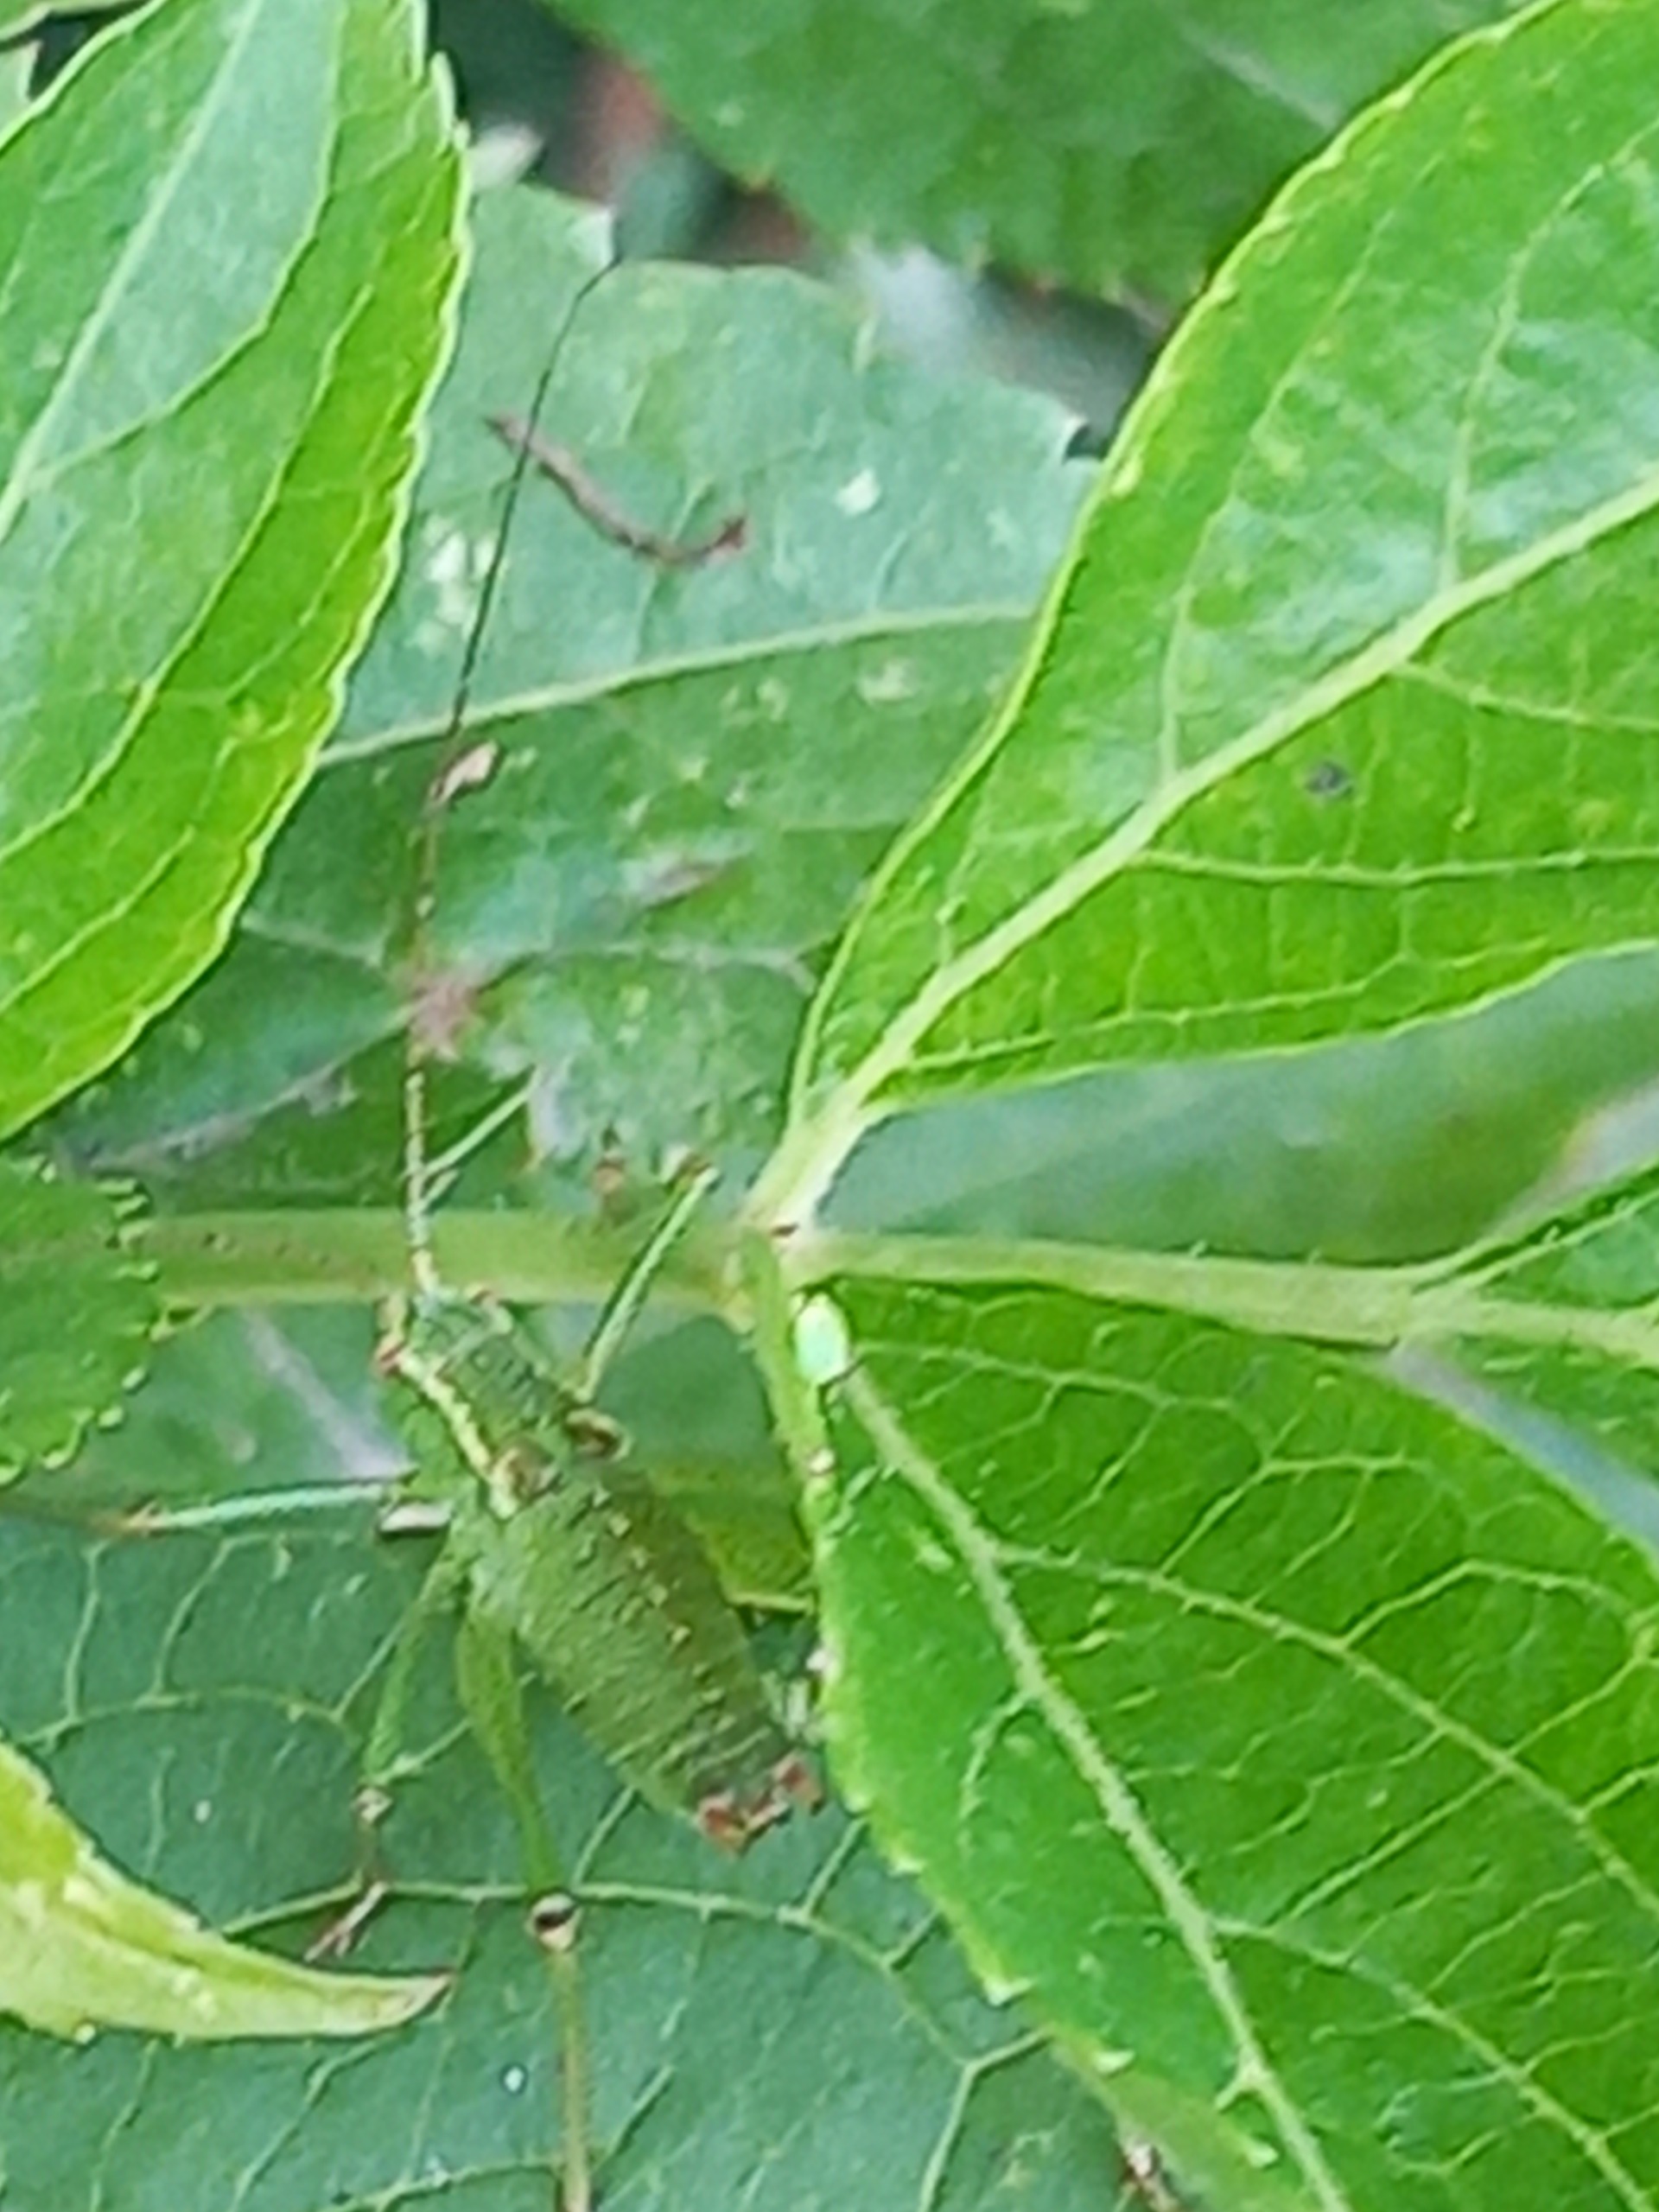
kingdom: Animalia
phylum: Arthropoda
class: Insecta
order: Orthoptera
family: Tettigoniidae
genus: Leptophyes
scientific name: Leptophyes punctatissima
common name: Krumknivgræshoppe
